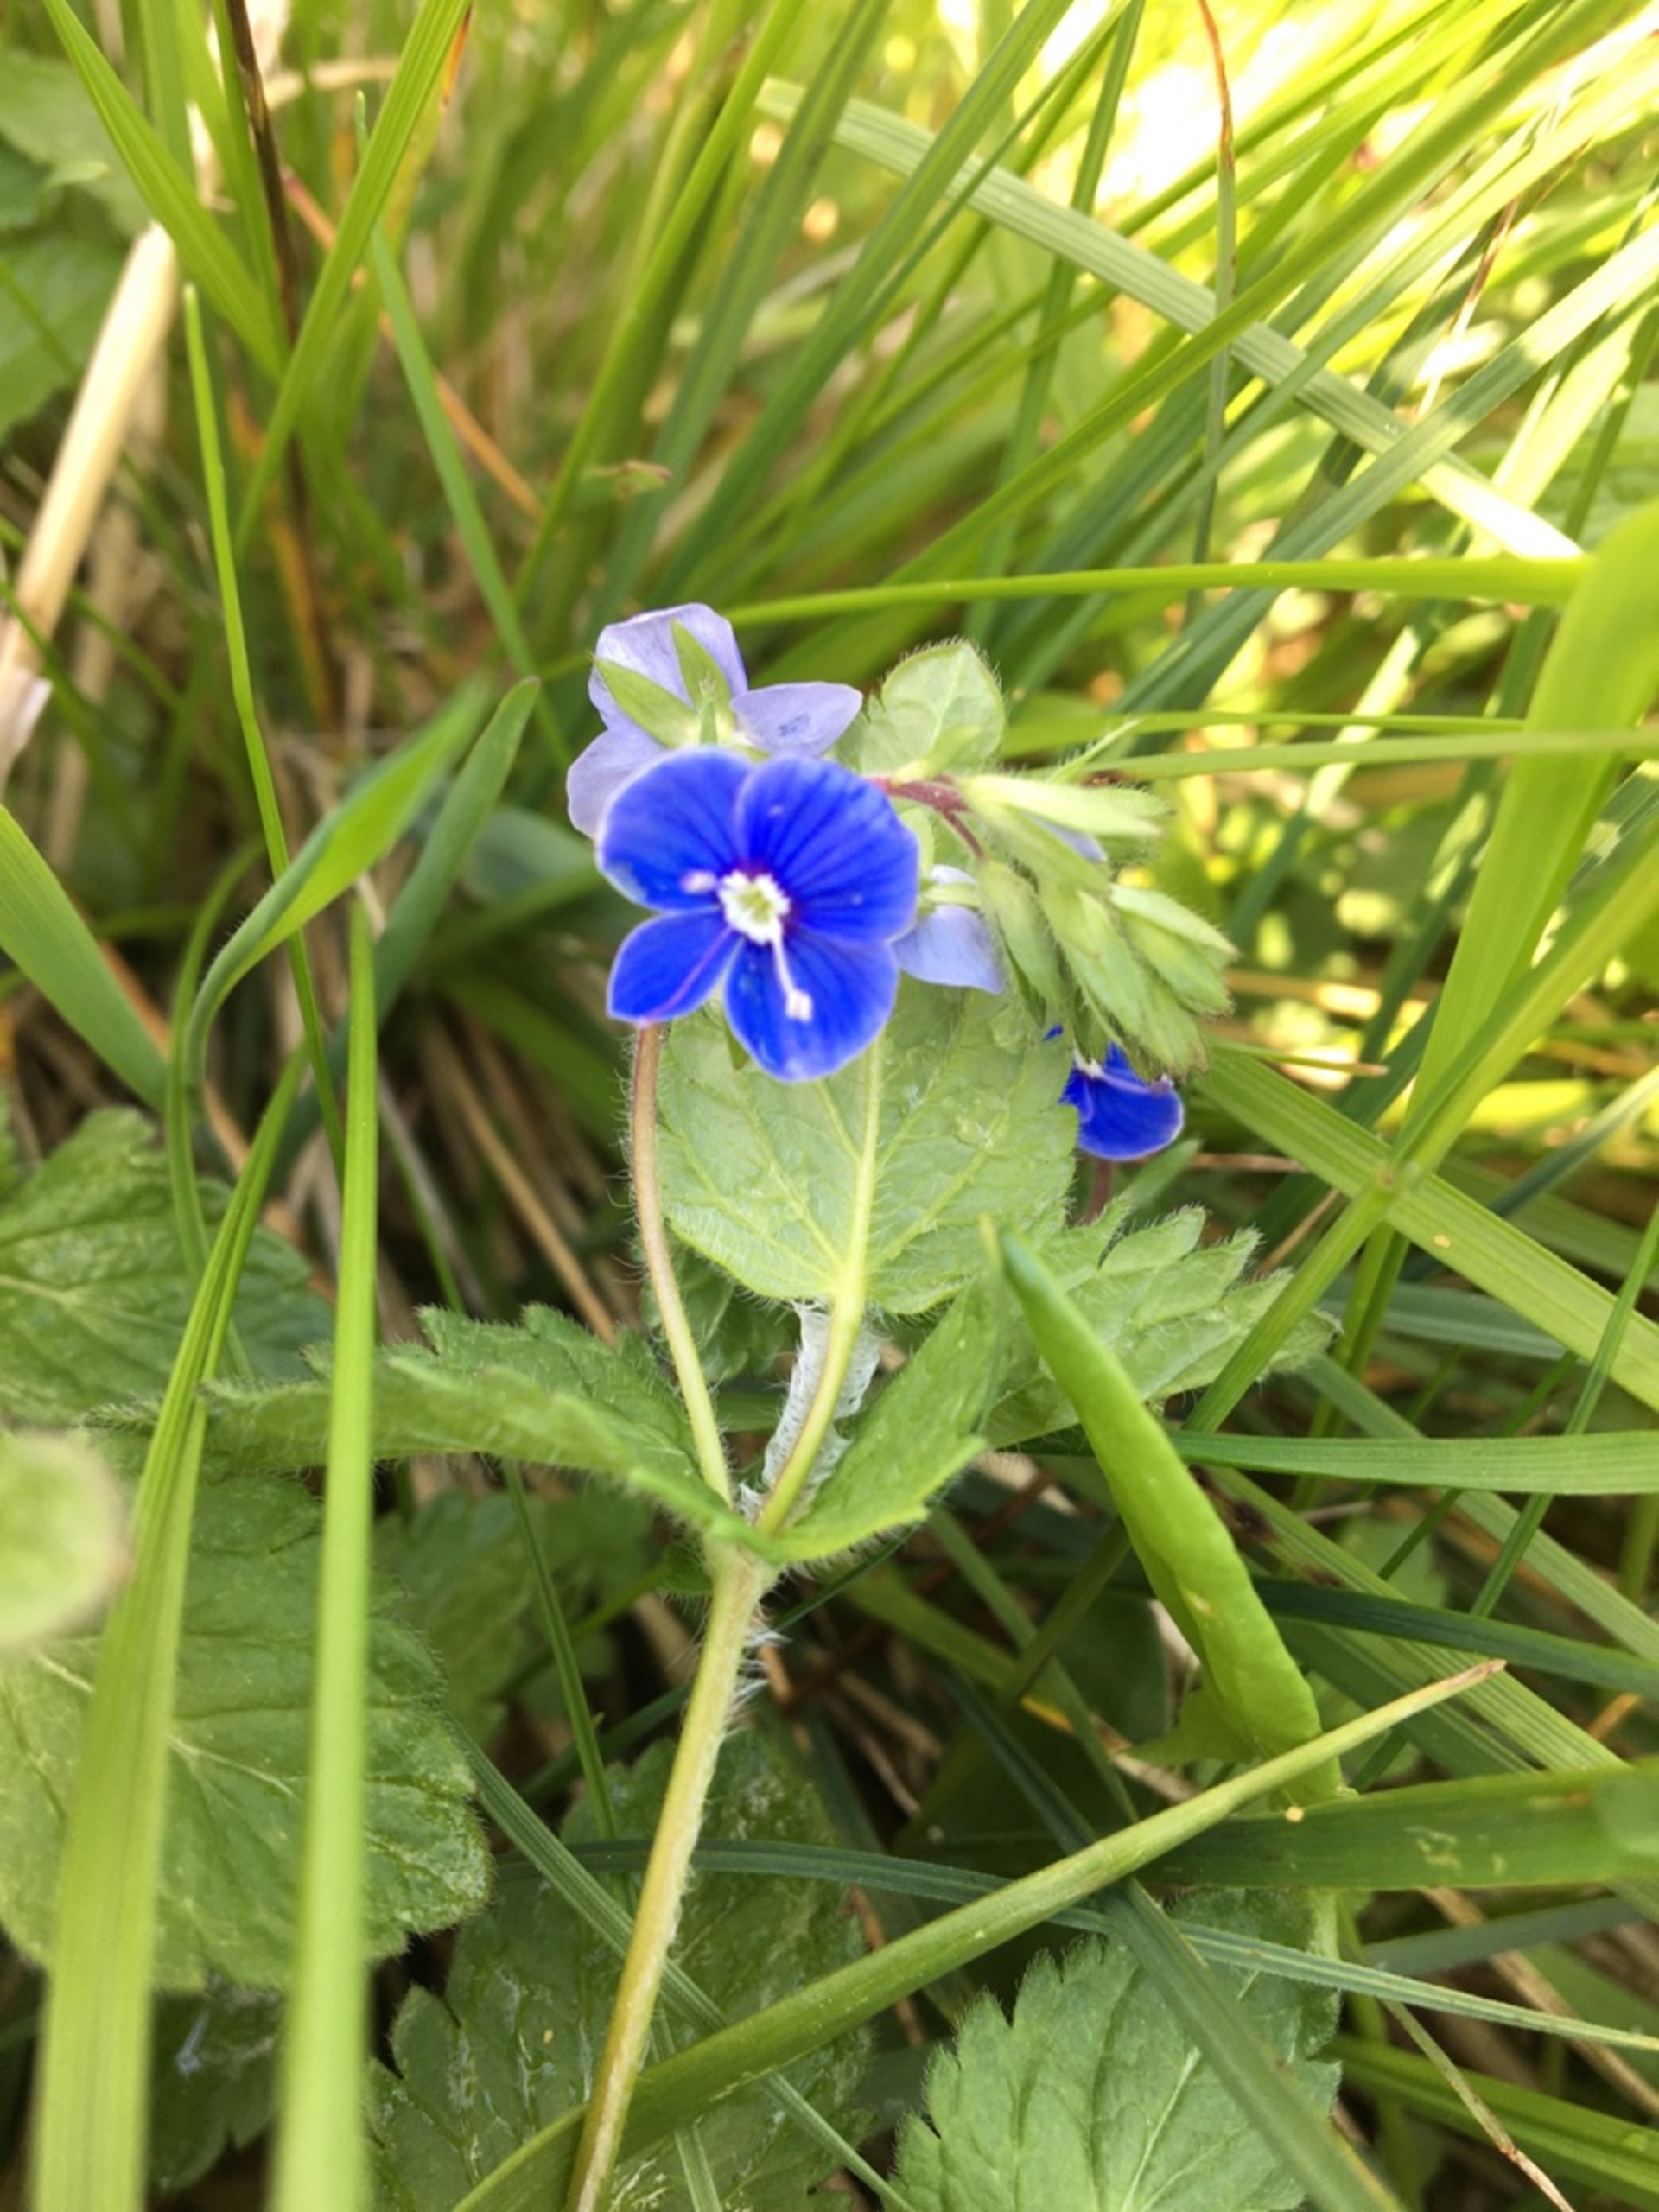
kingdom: Plantae
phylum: Tracheophyta
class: Magnoliopsida
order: Lamiales
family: Plantaginaceae
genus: Veronica
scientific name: Veronica chamaedrys
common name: Tveskægget ærenpris
